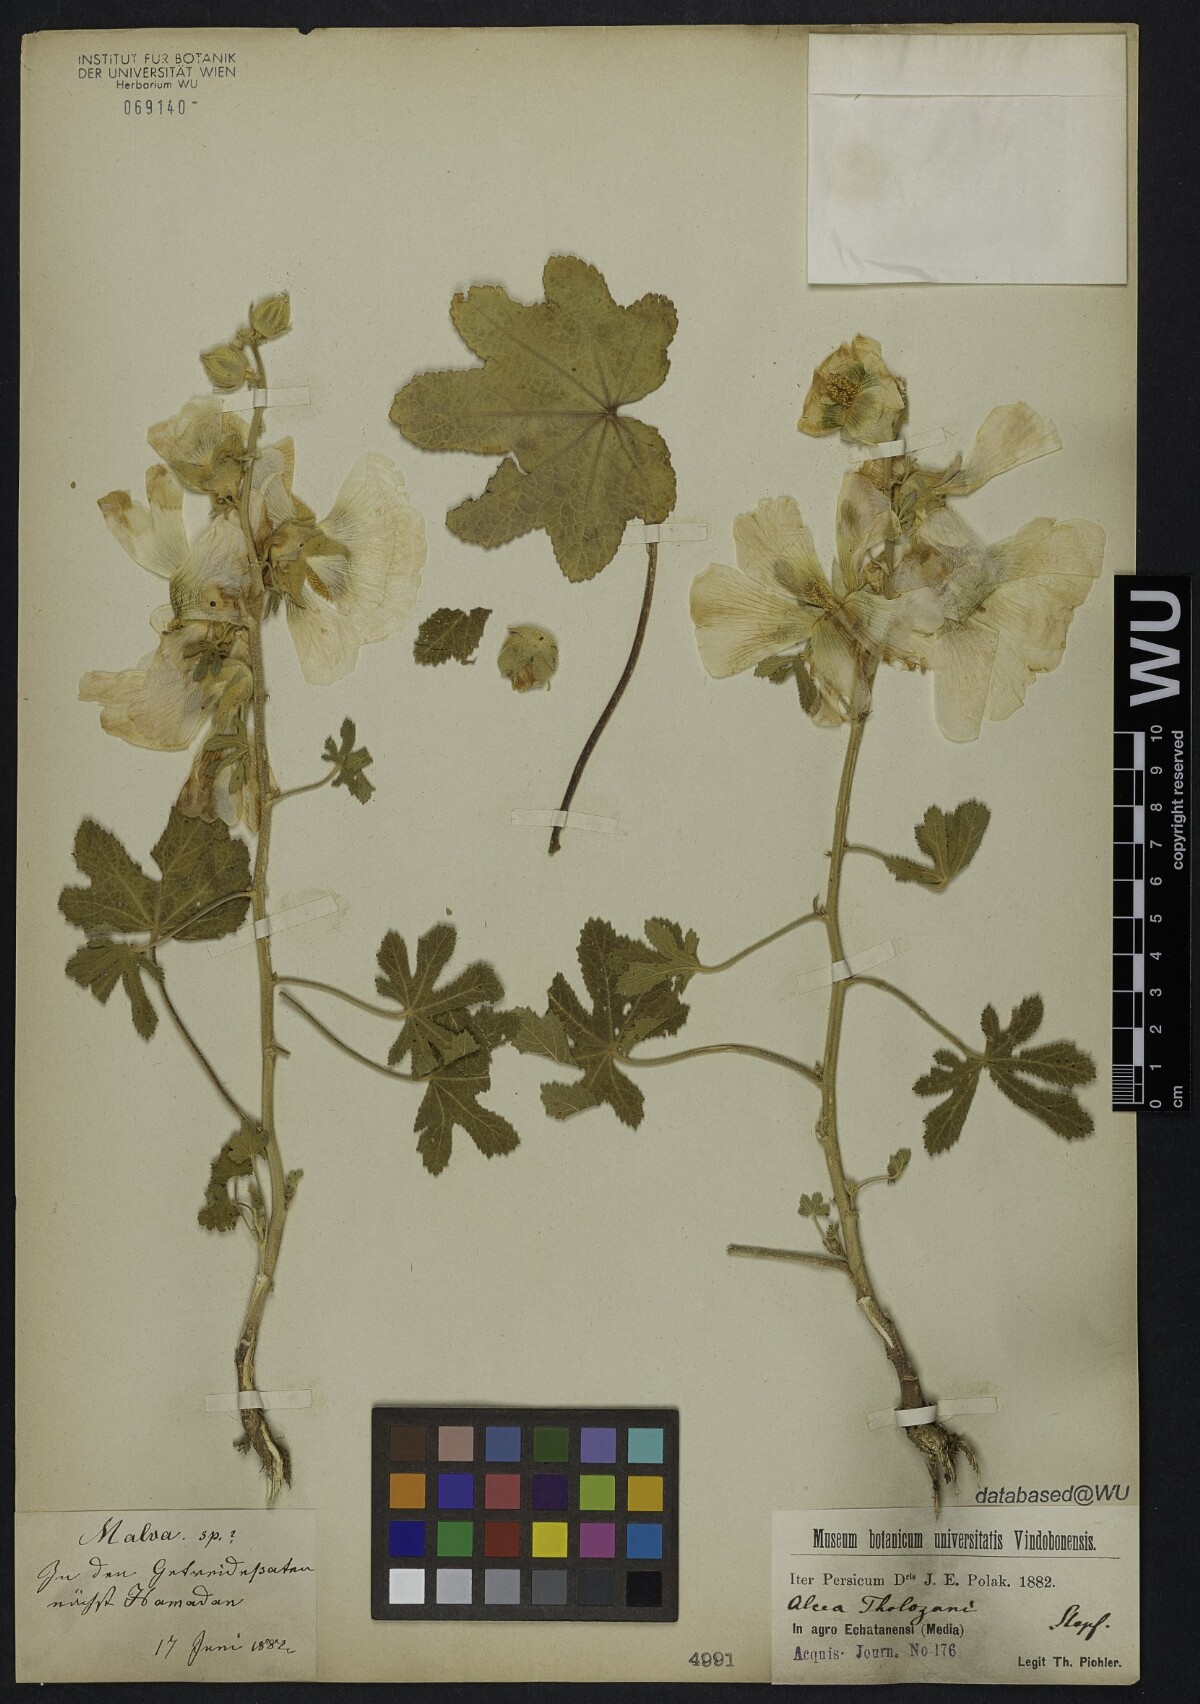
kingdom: Plantae
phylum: Tracheophyta
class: Magnoliopsida
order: Malvales
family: Malvaceae
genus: Alcea
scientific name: Alcea tholozani
